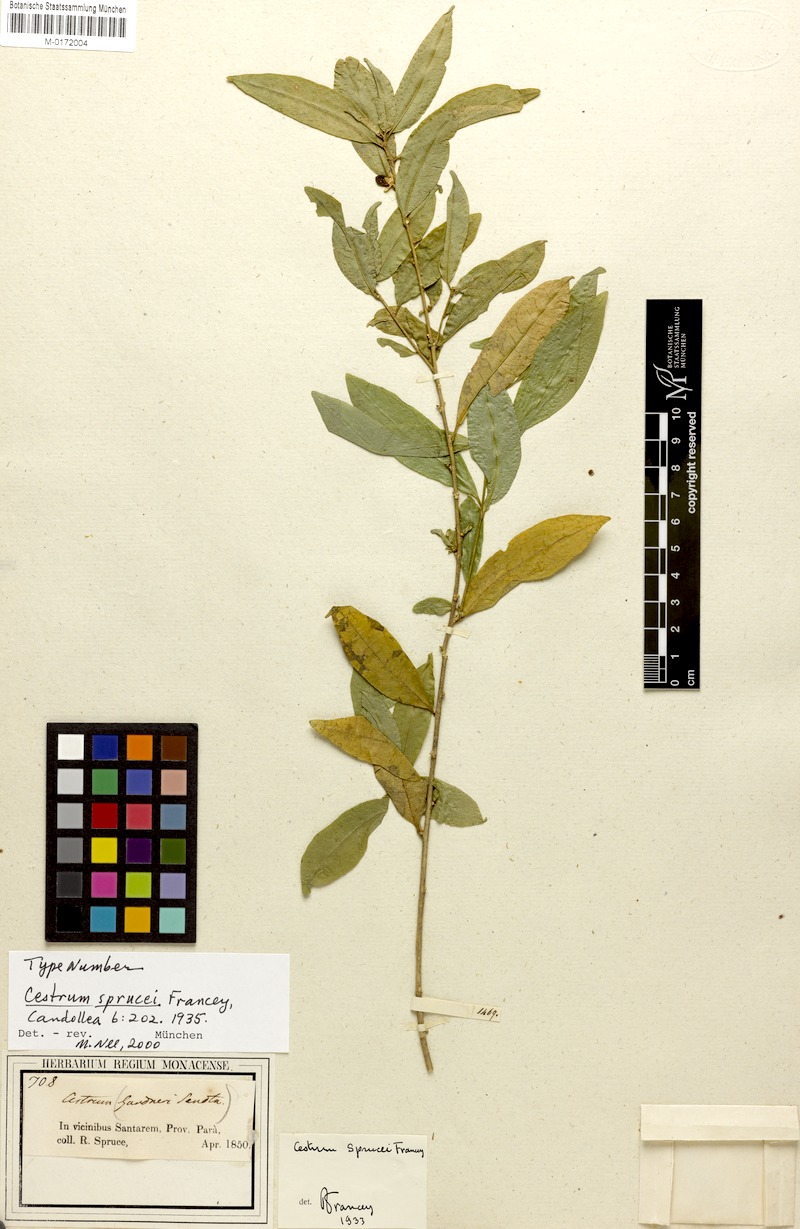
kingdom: Plantae
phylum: Tracheophyta
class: Magnoliopsida
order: Solanales
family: Solanaceae
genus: Cestrum
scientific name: Cestrum schulzianum
